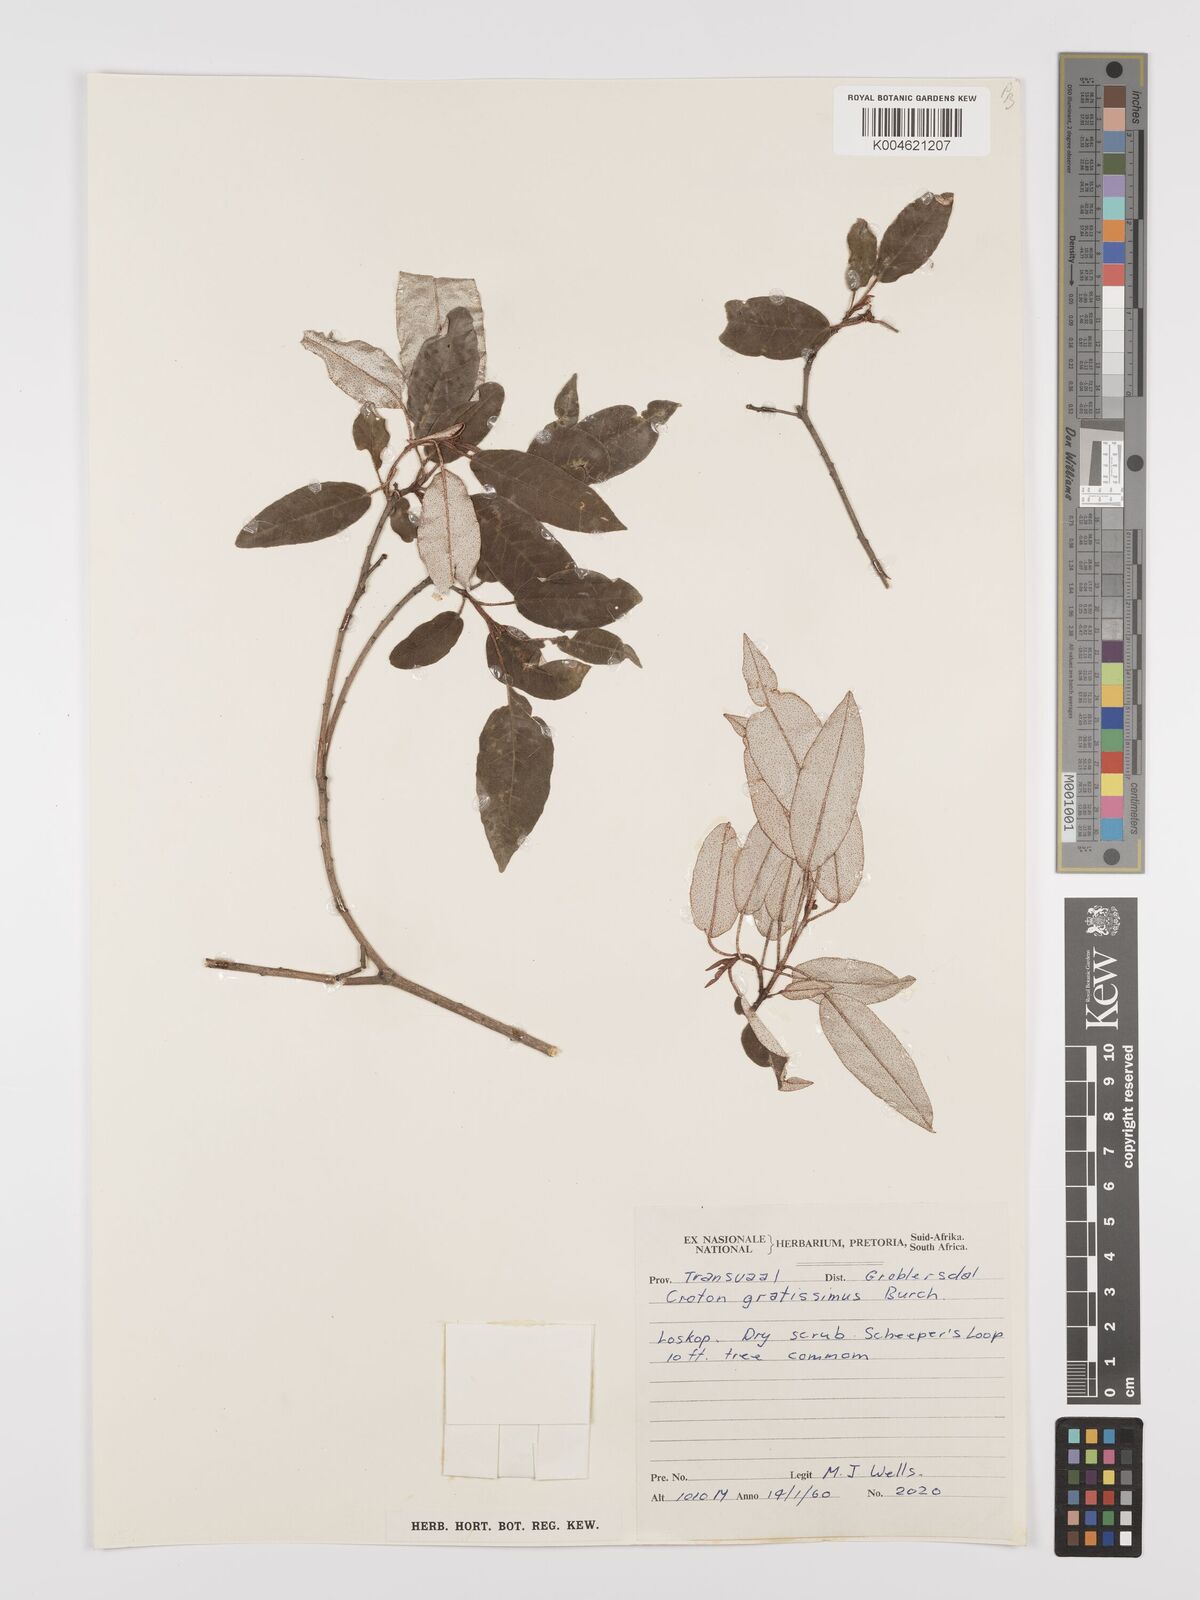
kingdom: Plantae
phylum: Tracheophyta
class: Magnoliopsida
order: Malpighiales
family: Euphorbiaceae
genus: Croton
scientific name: Croton gratissimus
